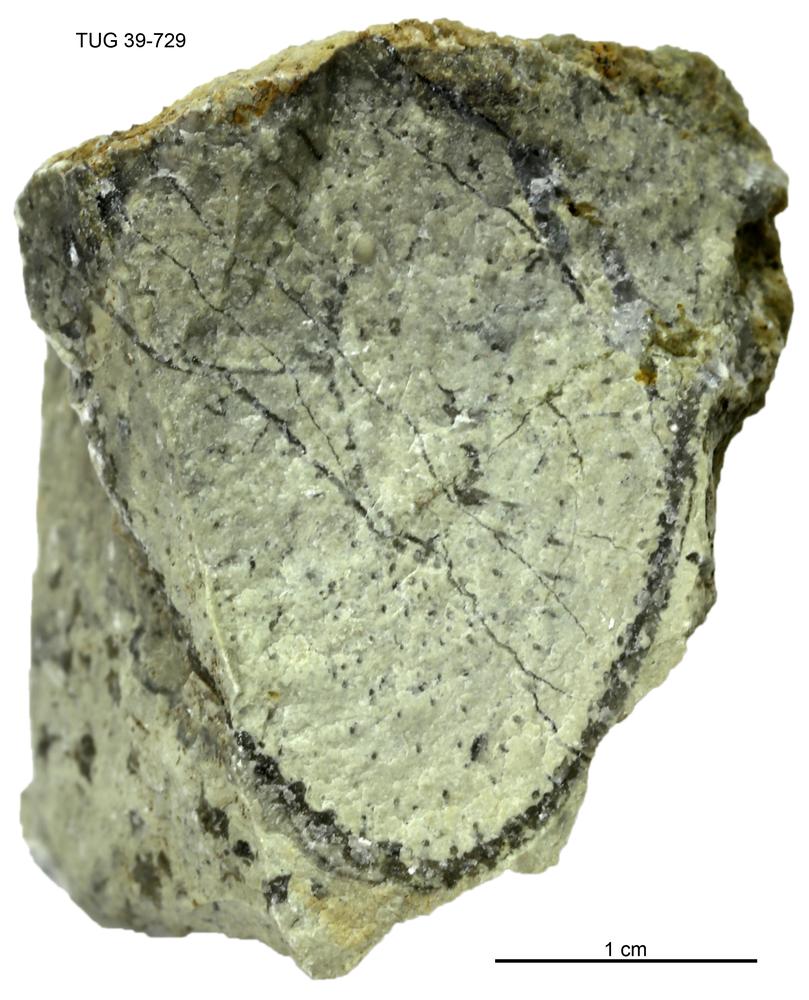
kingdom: Plantae
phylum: Chlorophyta
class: Chlorophyceae
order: Receptaculitales
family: Receptaculitaceae
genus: Receptaculites
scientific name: Receptaculites
